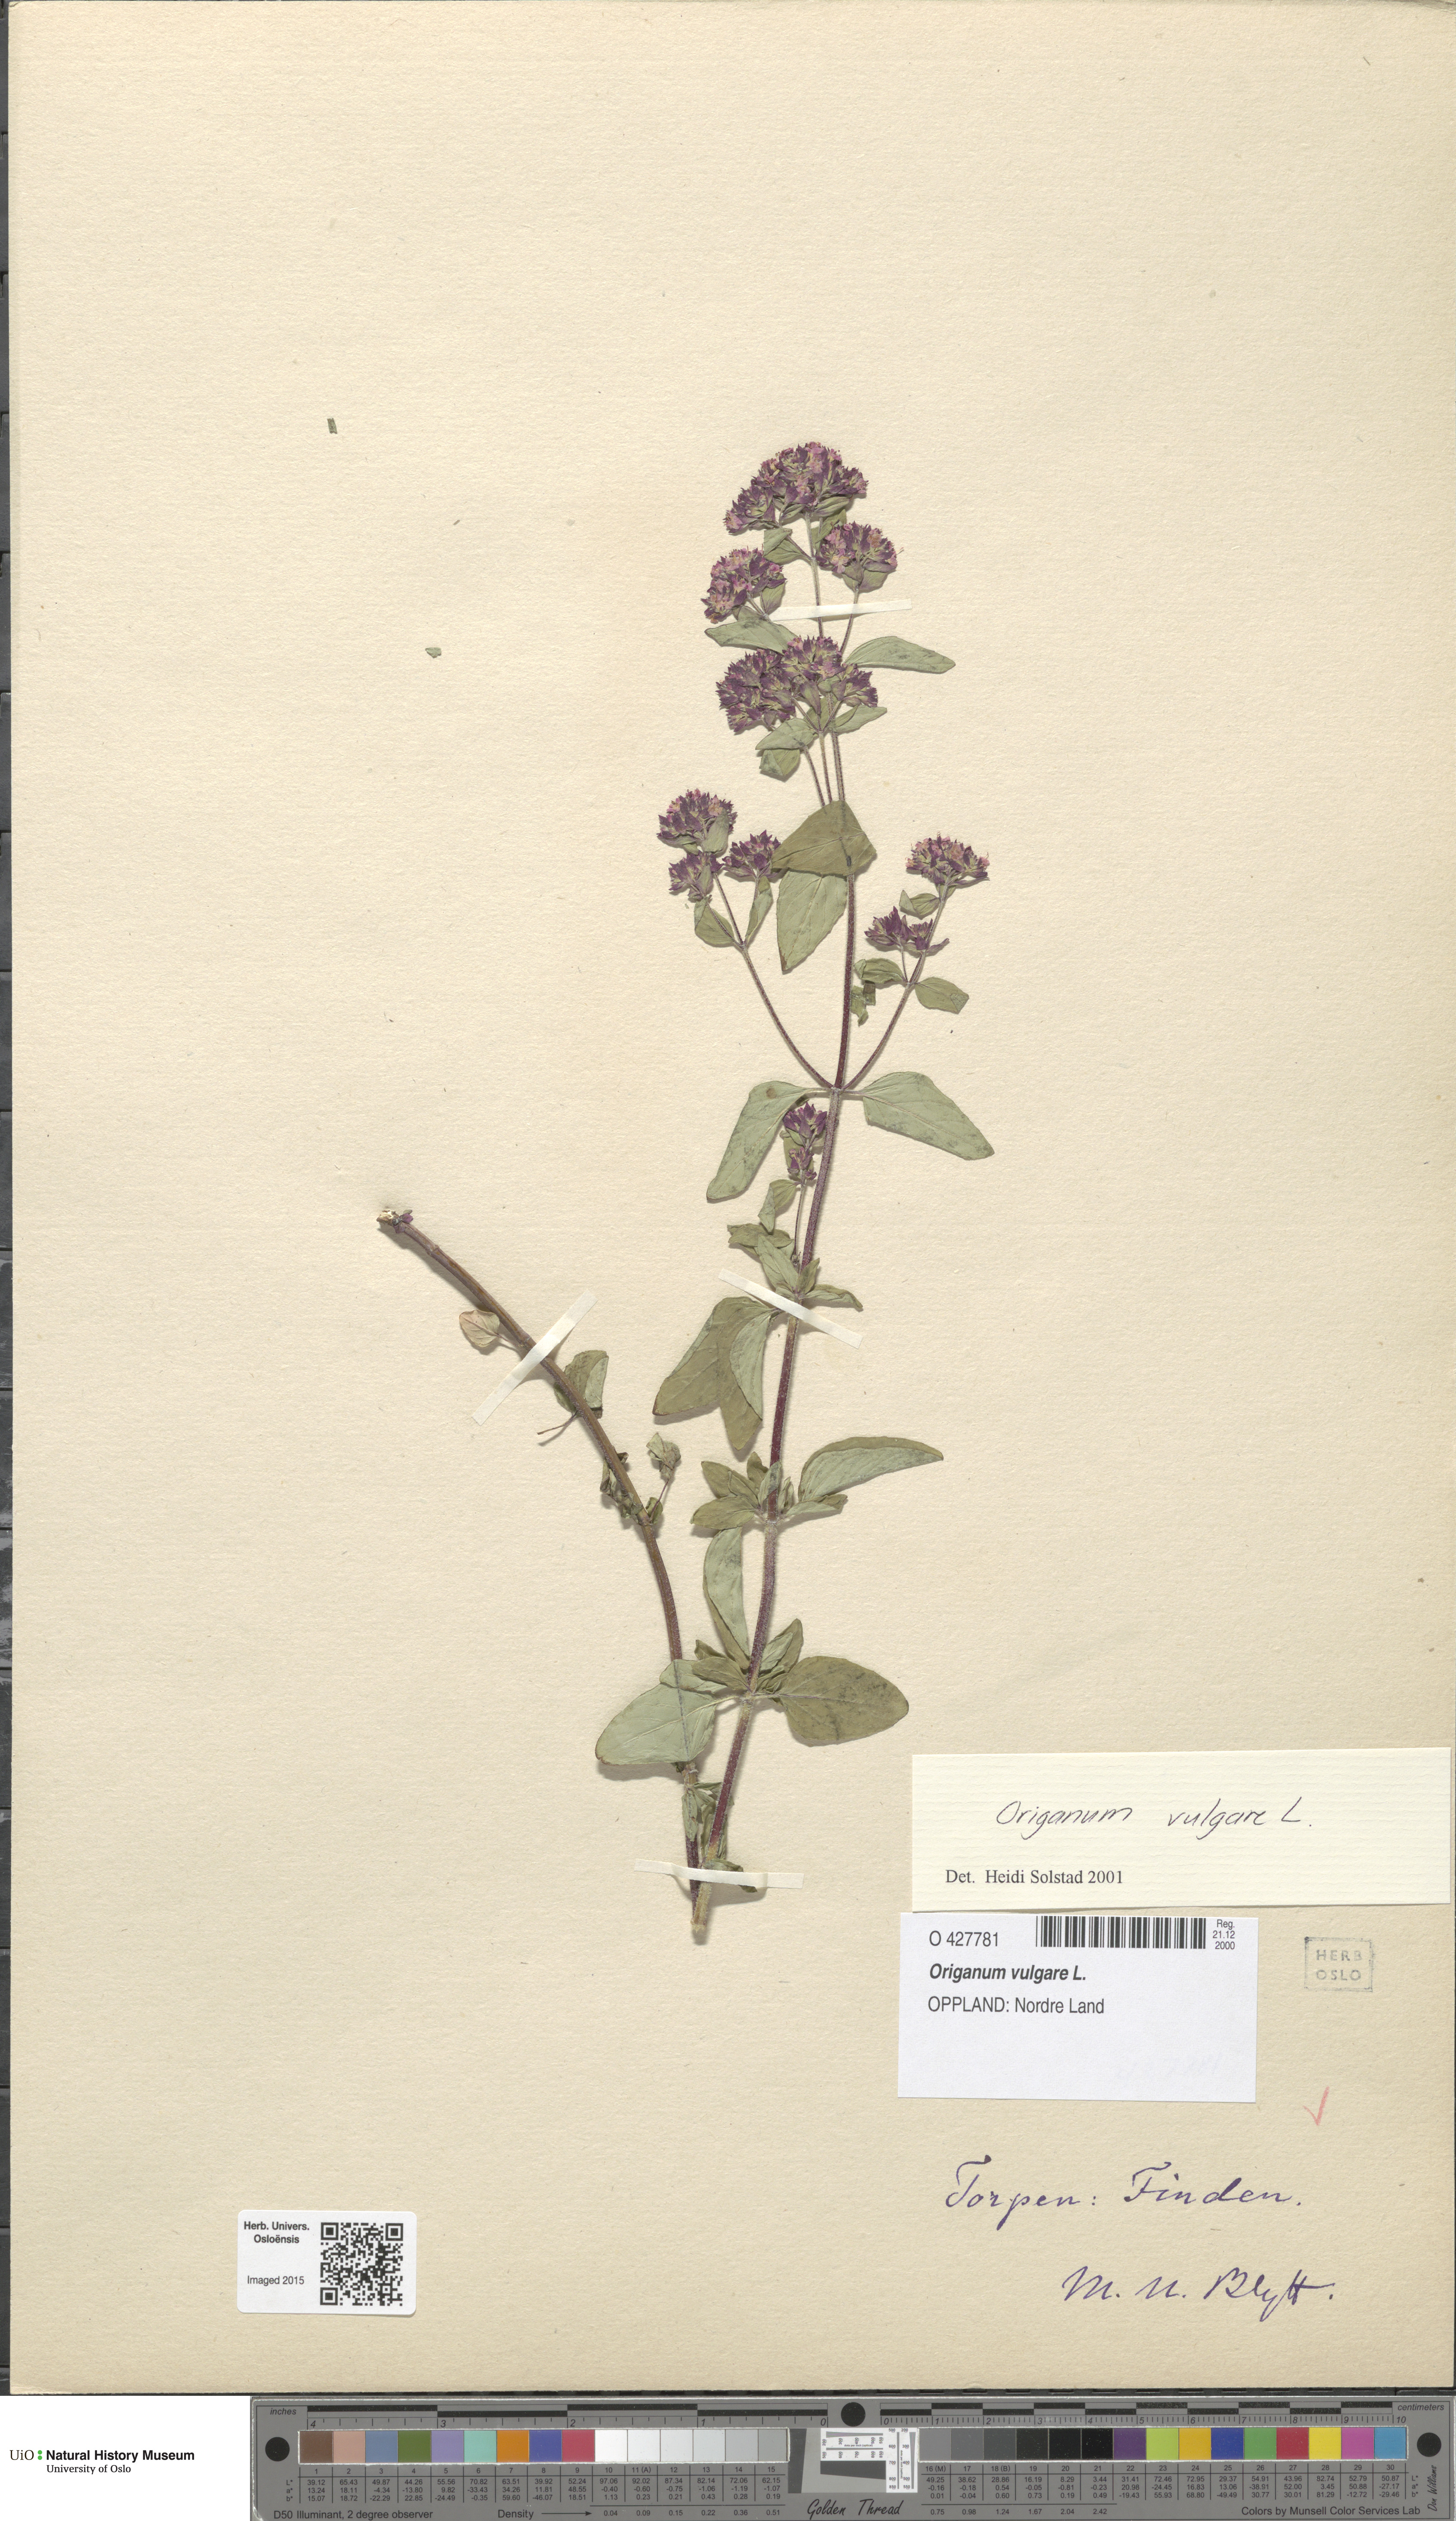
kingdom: Plantae
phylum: Tracheophyta
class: Magnoliopsida
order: Lamiales
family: Lamiaceae
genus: Origanum
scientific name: Origanum vulgare
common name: Wild marjoram
